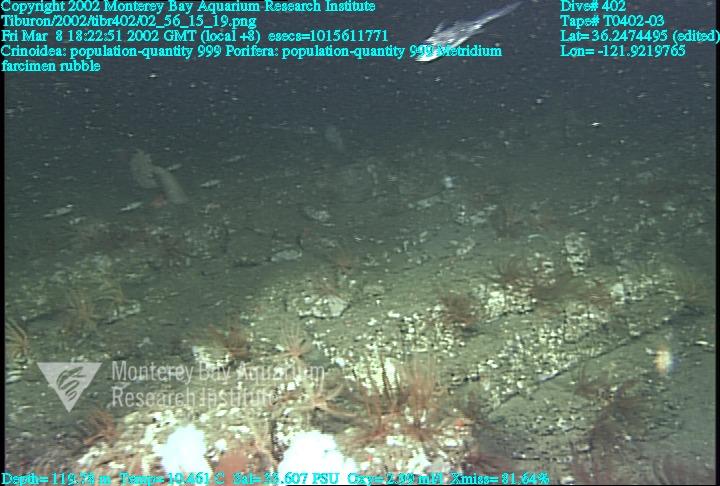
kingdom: Animalia
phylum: Porifera
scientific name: Porifera
